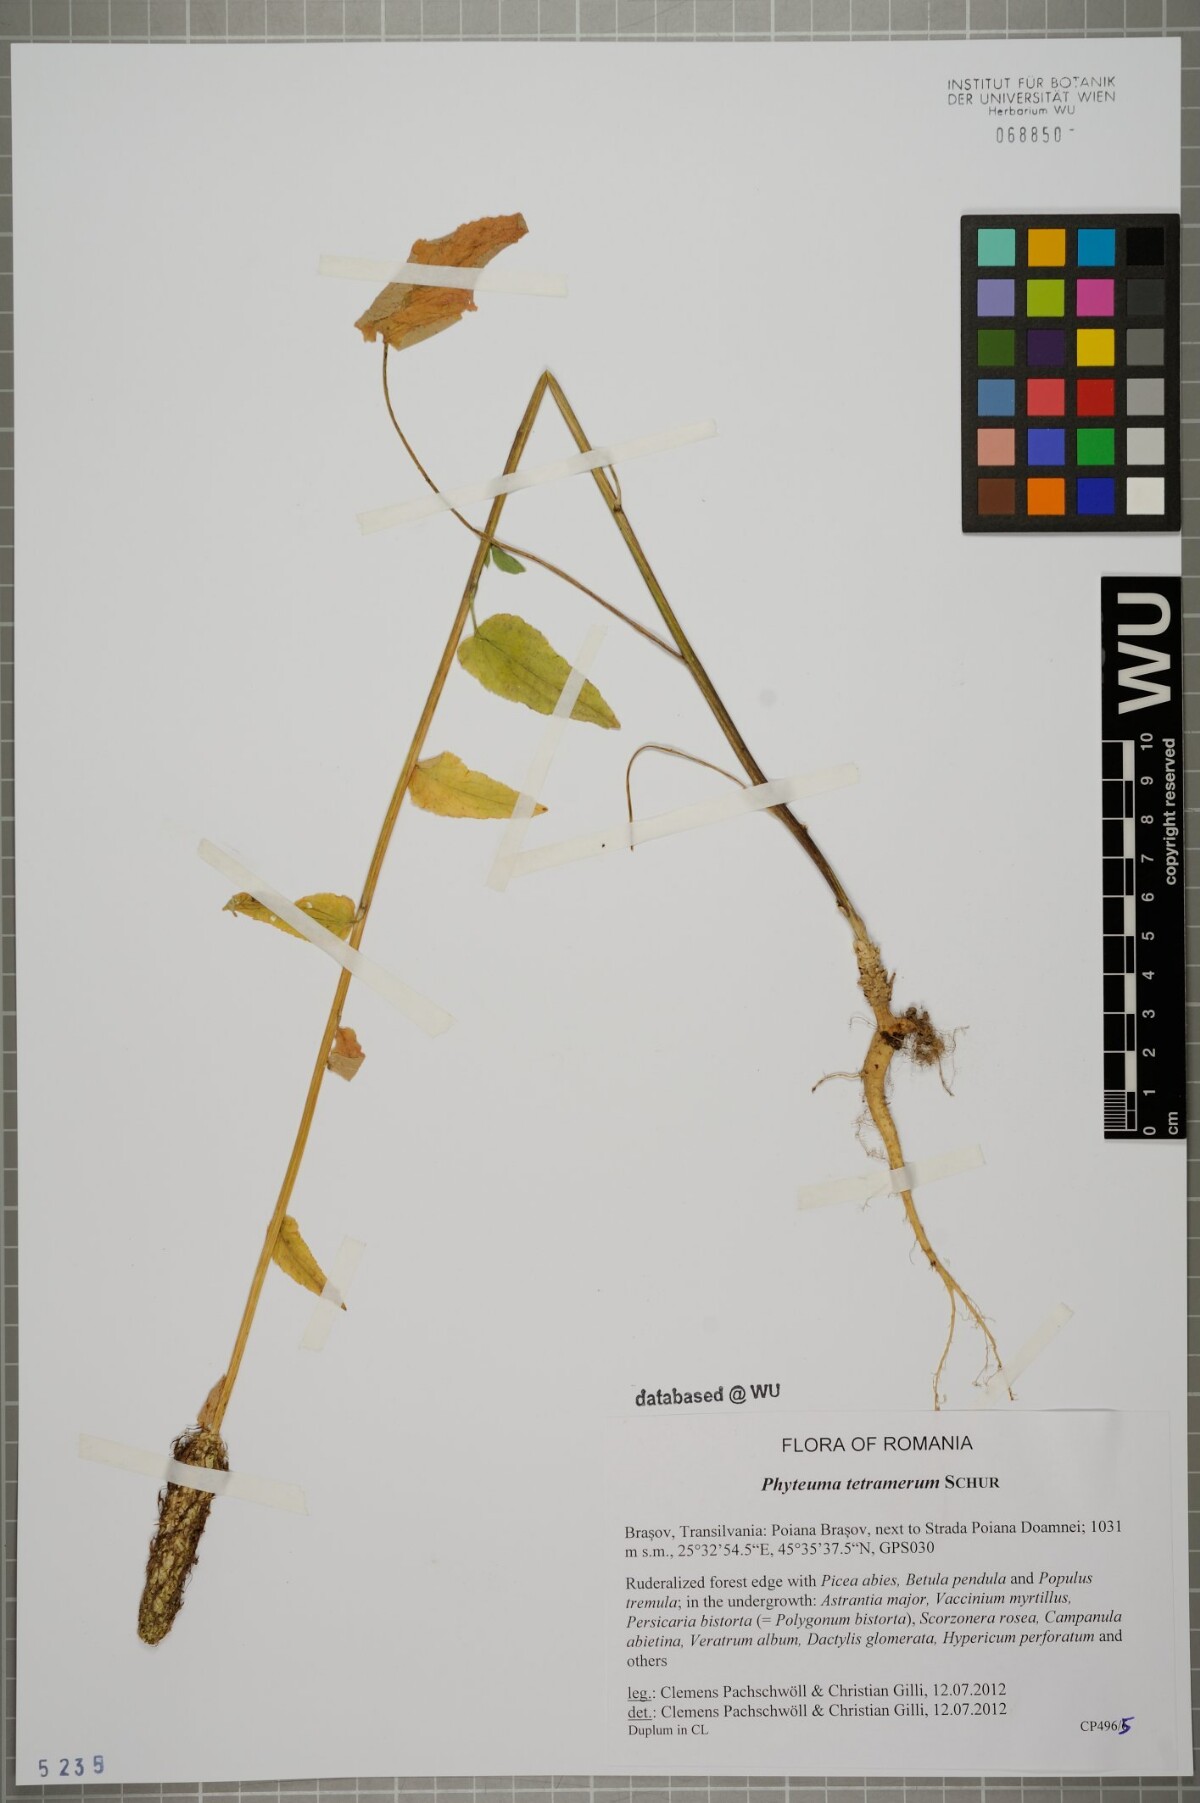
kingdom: Plantae
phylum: Tracheophyta
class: Magnoliopsida
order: Asterales
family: Campanulaceae
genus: Phyteuma
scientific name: Phyteuma tetramerum
